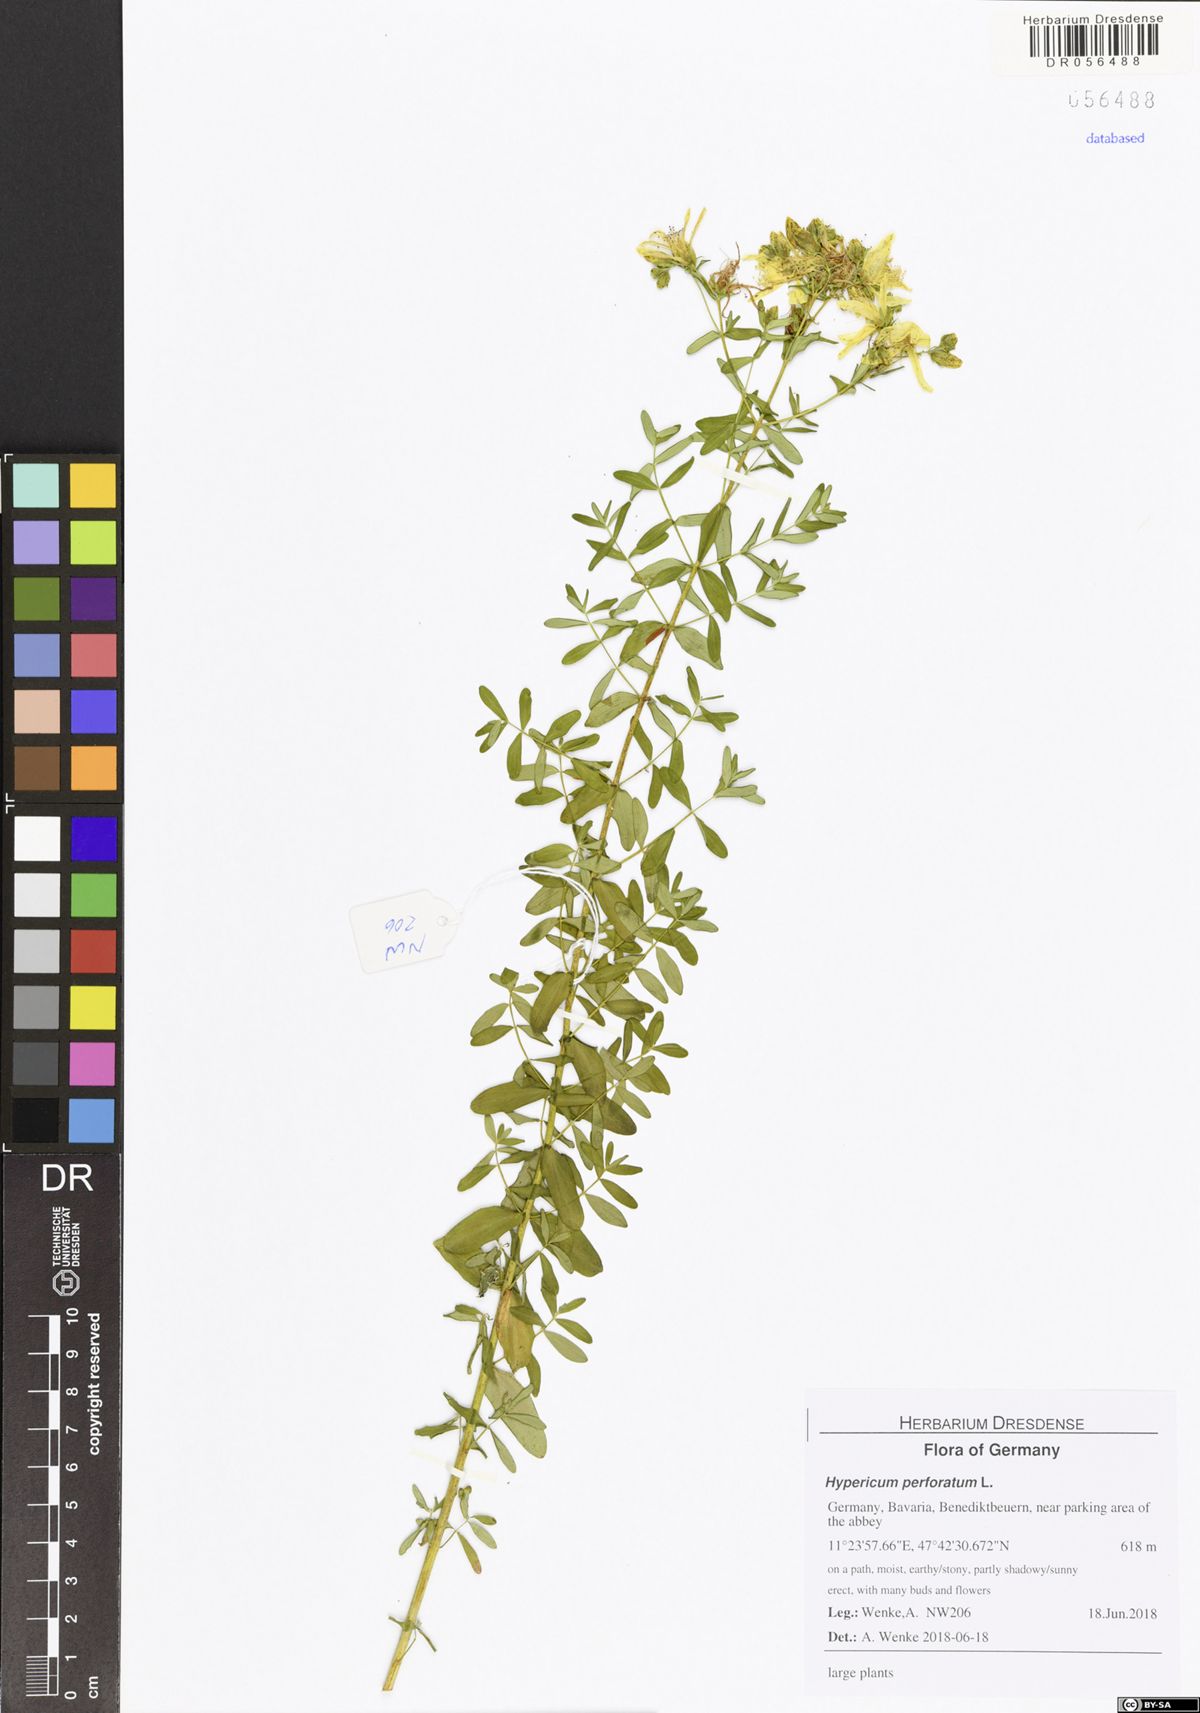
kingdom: Plantae
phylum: Tracheophyta
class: Magnoliopsida
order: Malpighiales
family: Hypericaceae
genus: Hypericum
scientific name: Hypericum perforatum
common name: Common st. johnswort
